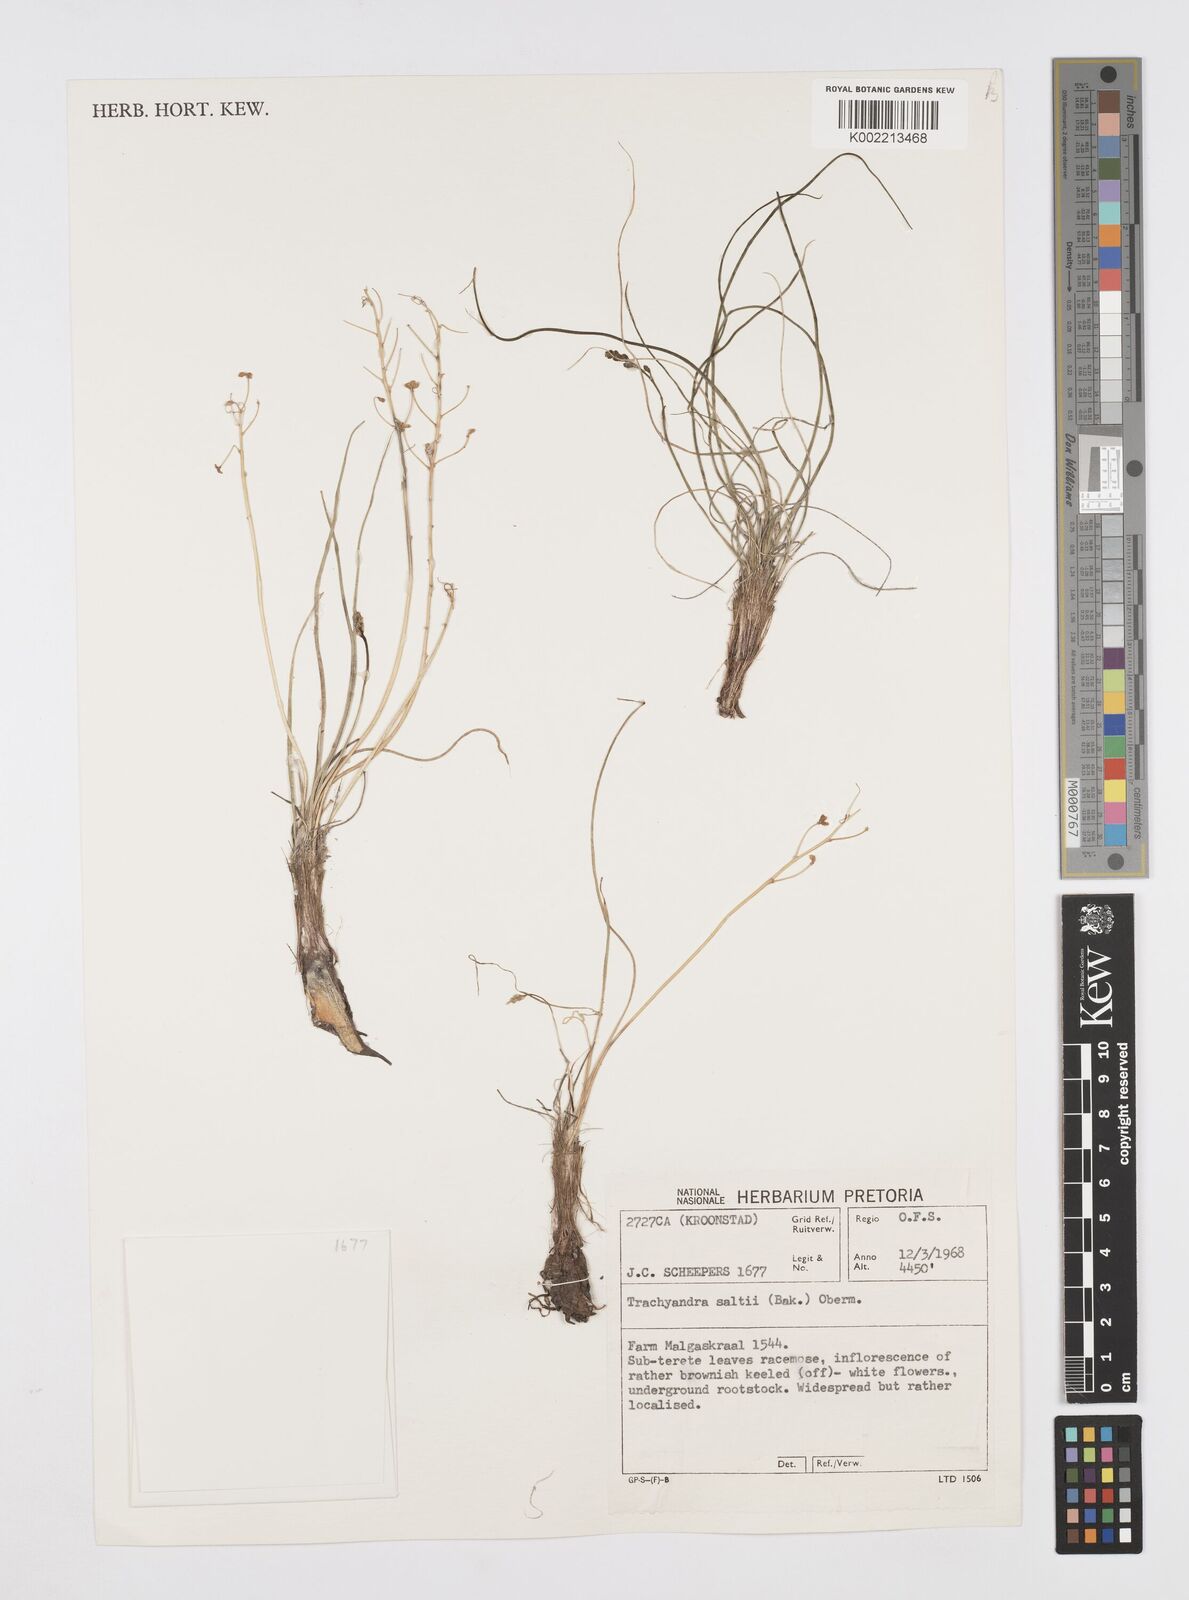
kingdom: Plantae
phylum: Tracheophyta
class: Liliopsida
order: Asparagales
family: Asphodelaceae
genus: Trachyandra
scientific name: Trachyandra saltii
